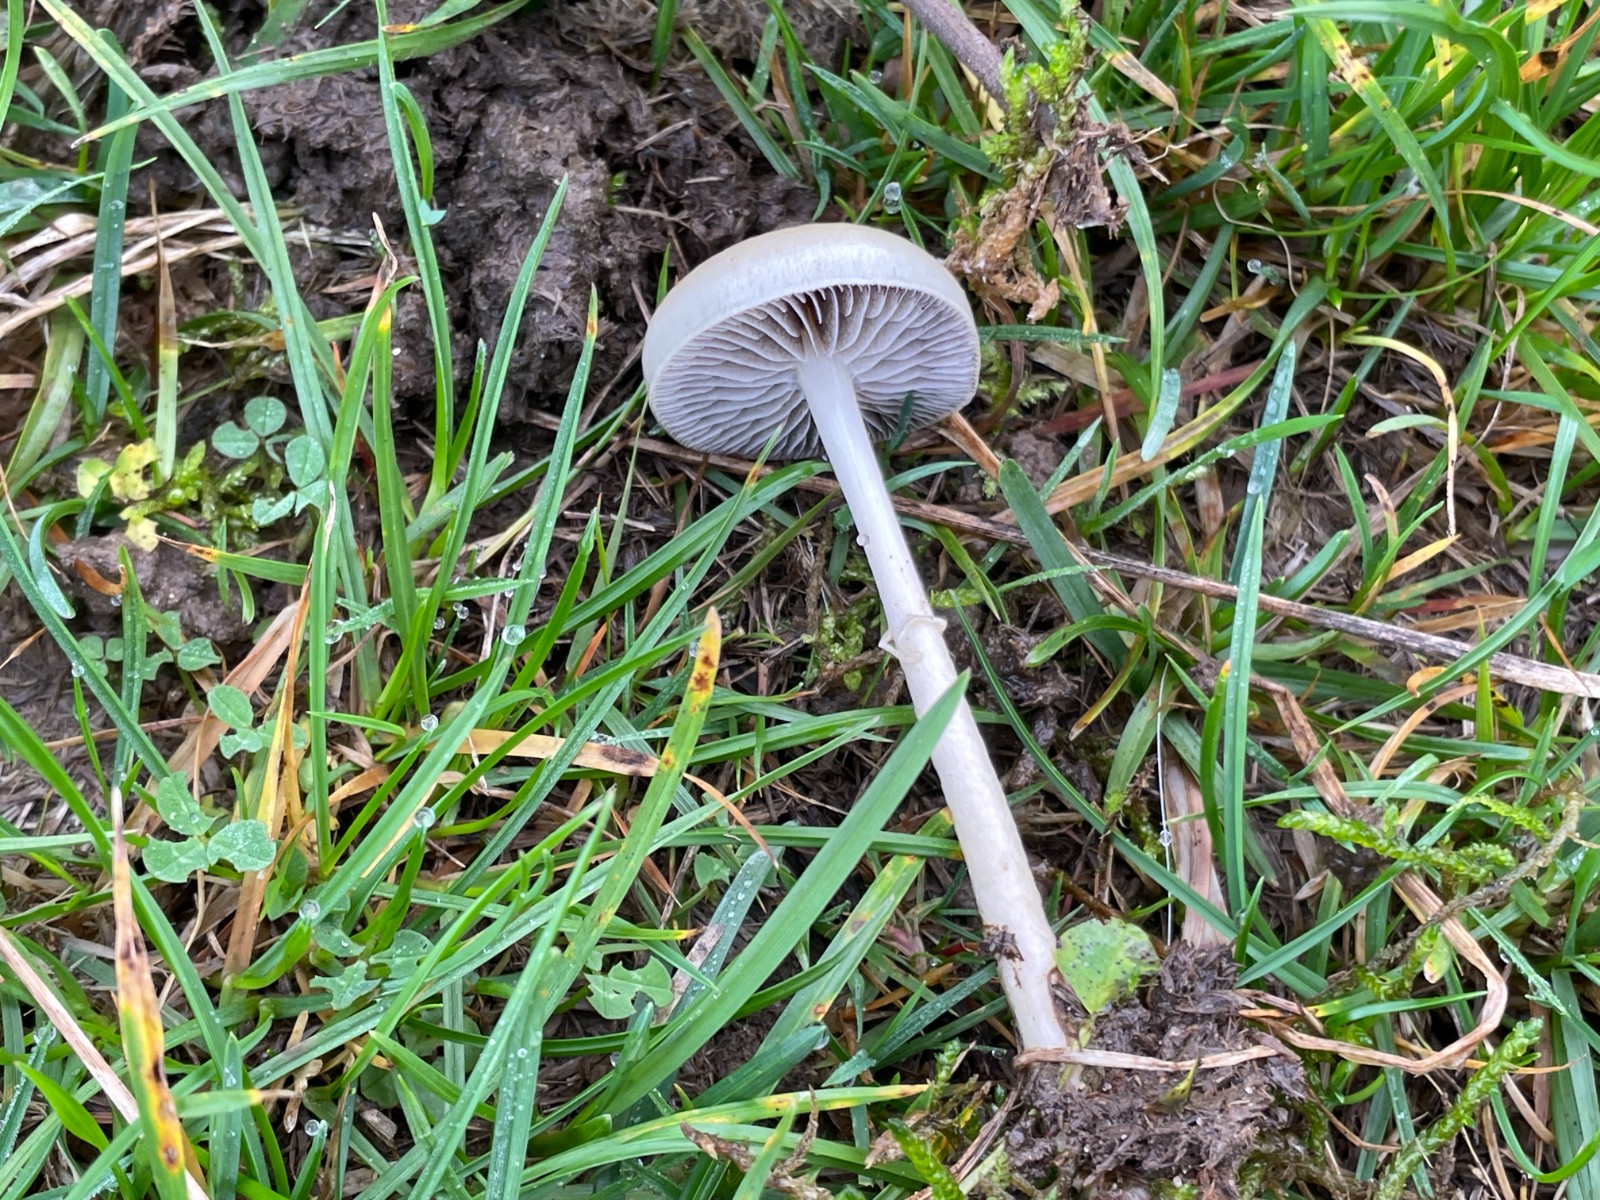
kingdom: Fungi
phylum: Basidiomycota
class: Agaricomycetes
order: Agaricales
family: Strophariaceae
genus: Protostropharia
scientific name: Protostropharia semiglobata
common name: halvkugleformet bredblad
